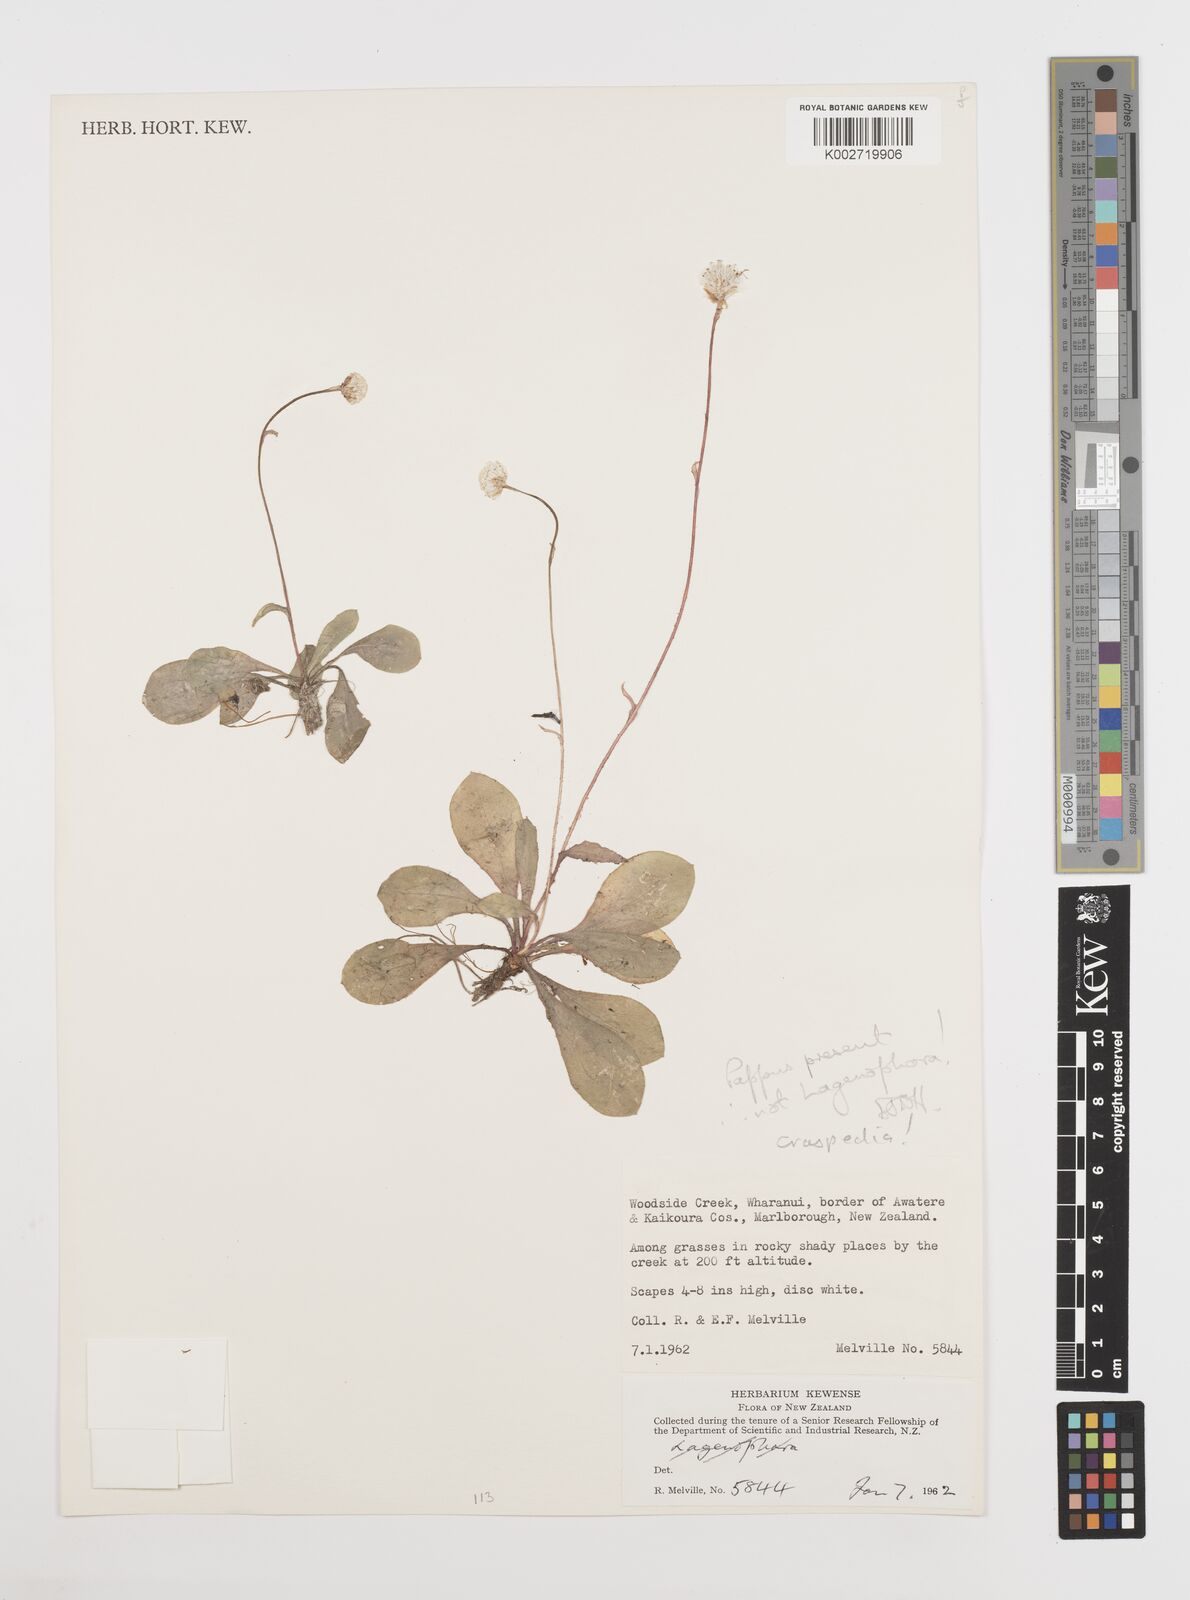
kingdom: Plantae
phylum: Tracheophyta
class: Magnoliopsida
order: Asterales
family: Asteraceae
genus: Craspedia
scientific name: Craspedia
